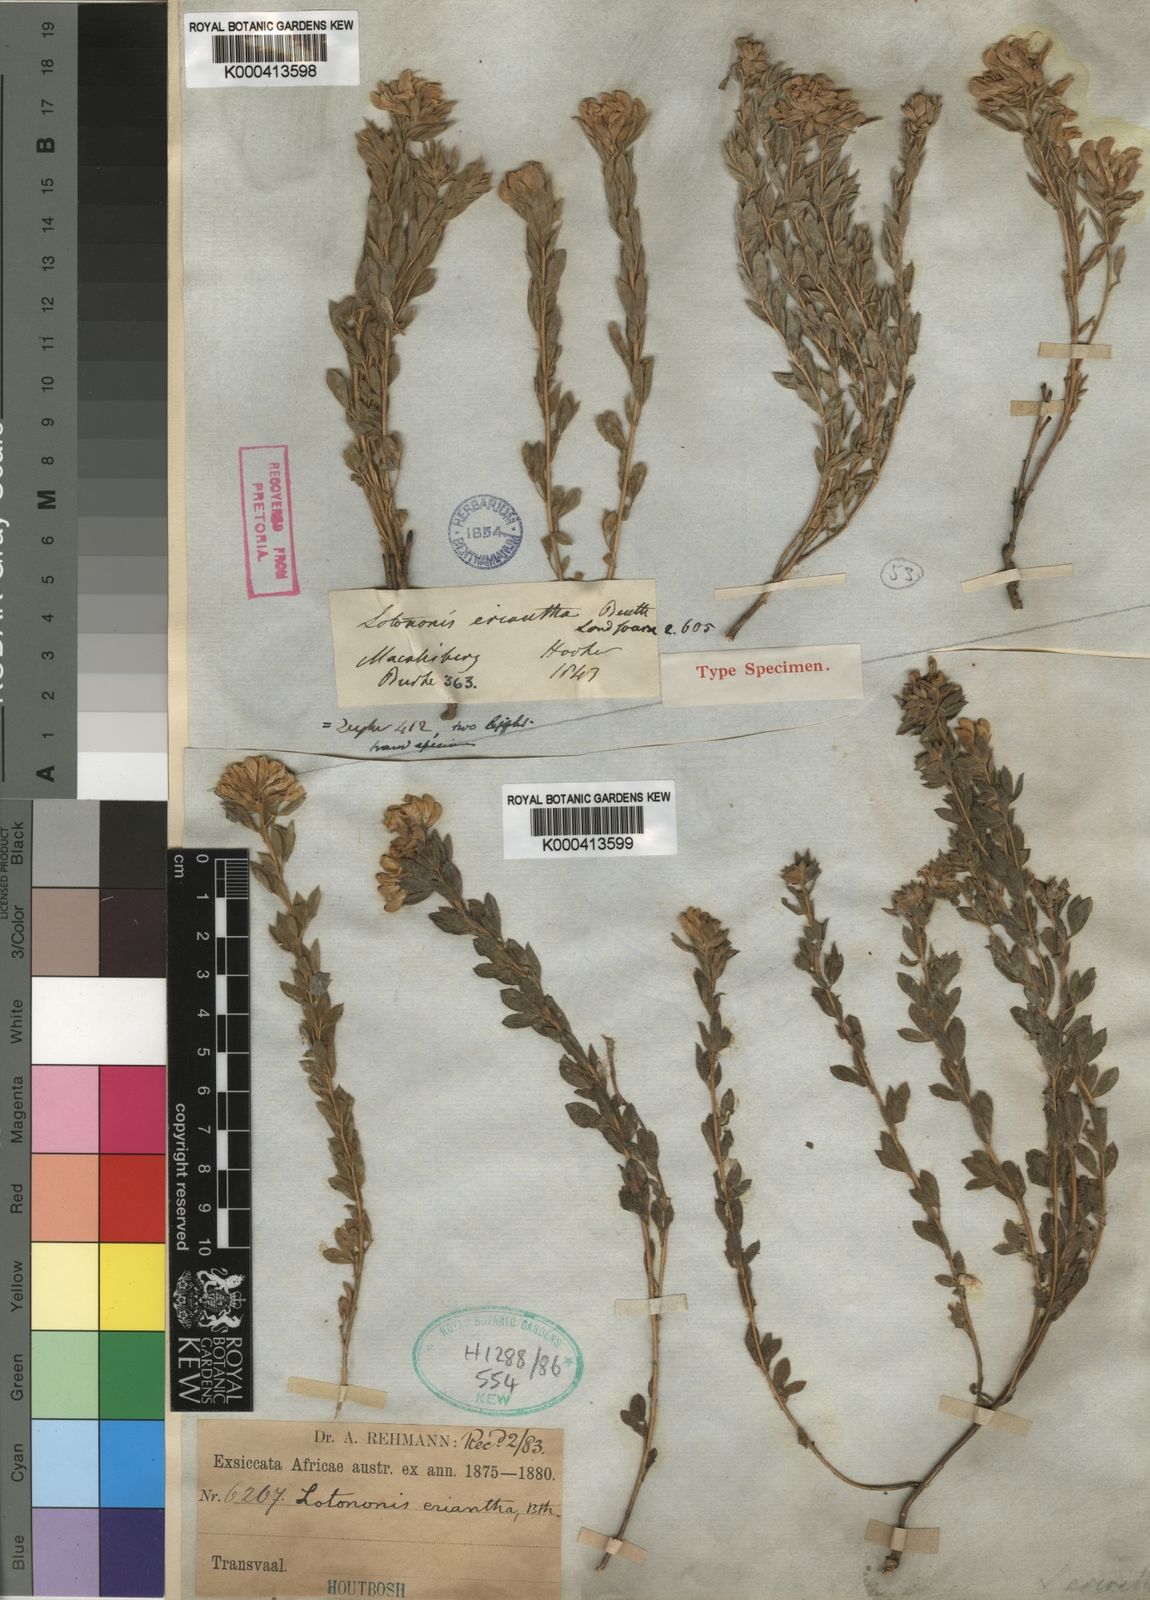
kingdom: Plantae
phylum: Tracheophyta
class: Magnoliopsida
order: Fabales
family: Fabaceae
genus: Leobordea
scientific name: Leobordea eriantha
